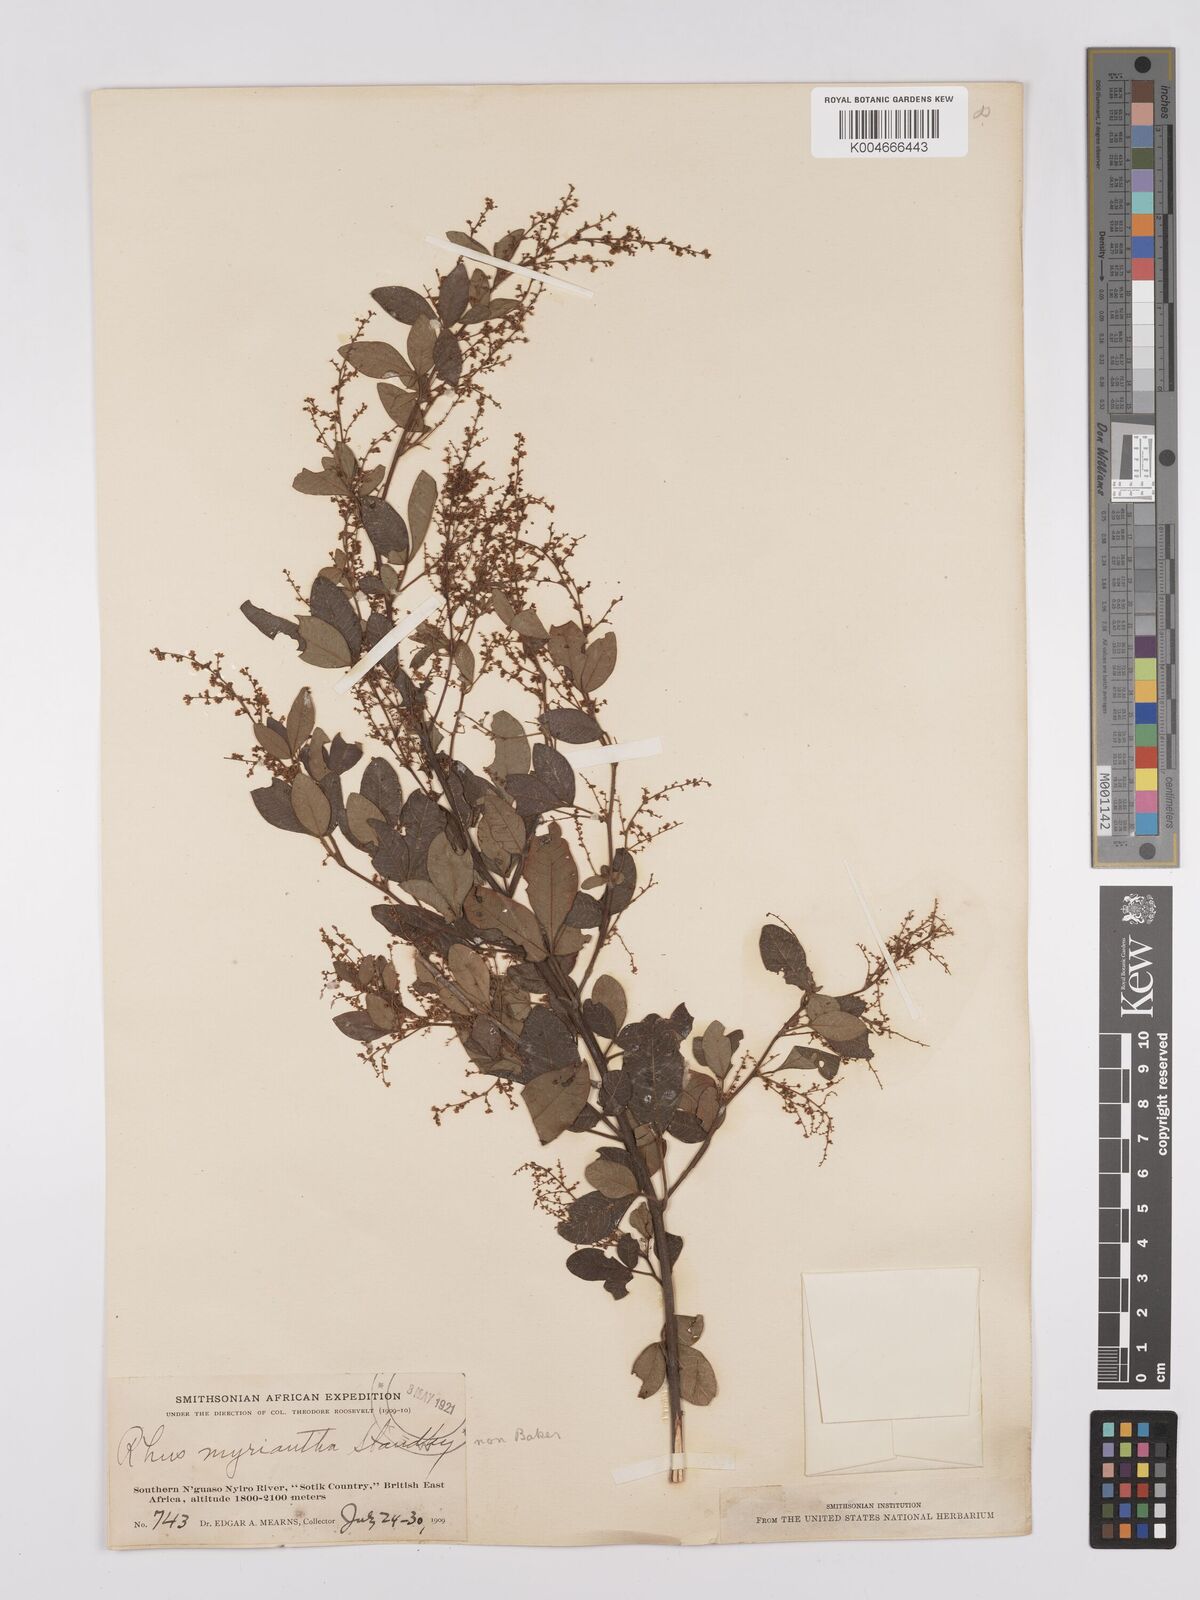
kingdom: Plantae
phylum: Tracheophyta
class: Magnoliopsida
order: Sapindales
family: Anacardiaceae
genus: Searsia
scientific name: Searsia quartiniana
